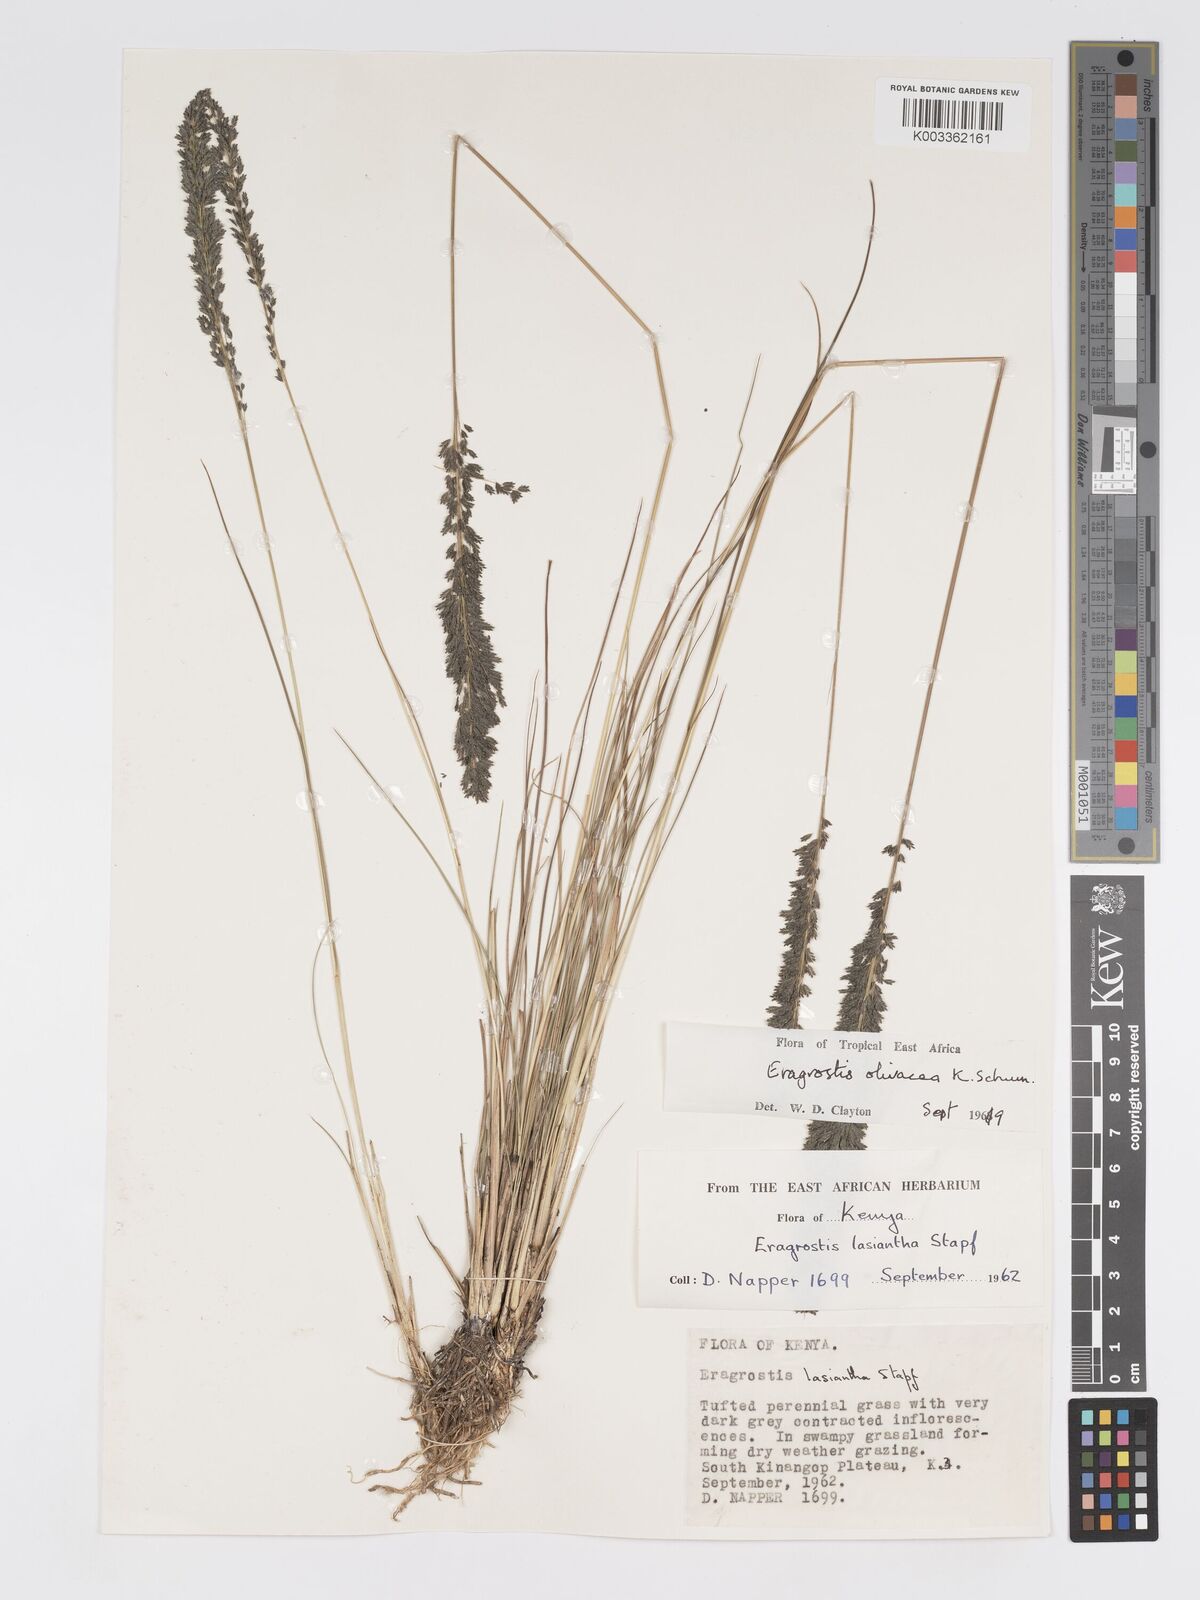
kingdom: Plantae
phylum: Tracheophyta
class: Liliopsida
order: Poales
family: Poaceae
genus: Eragrostis
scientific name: Eragrostis olivacea
